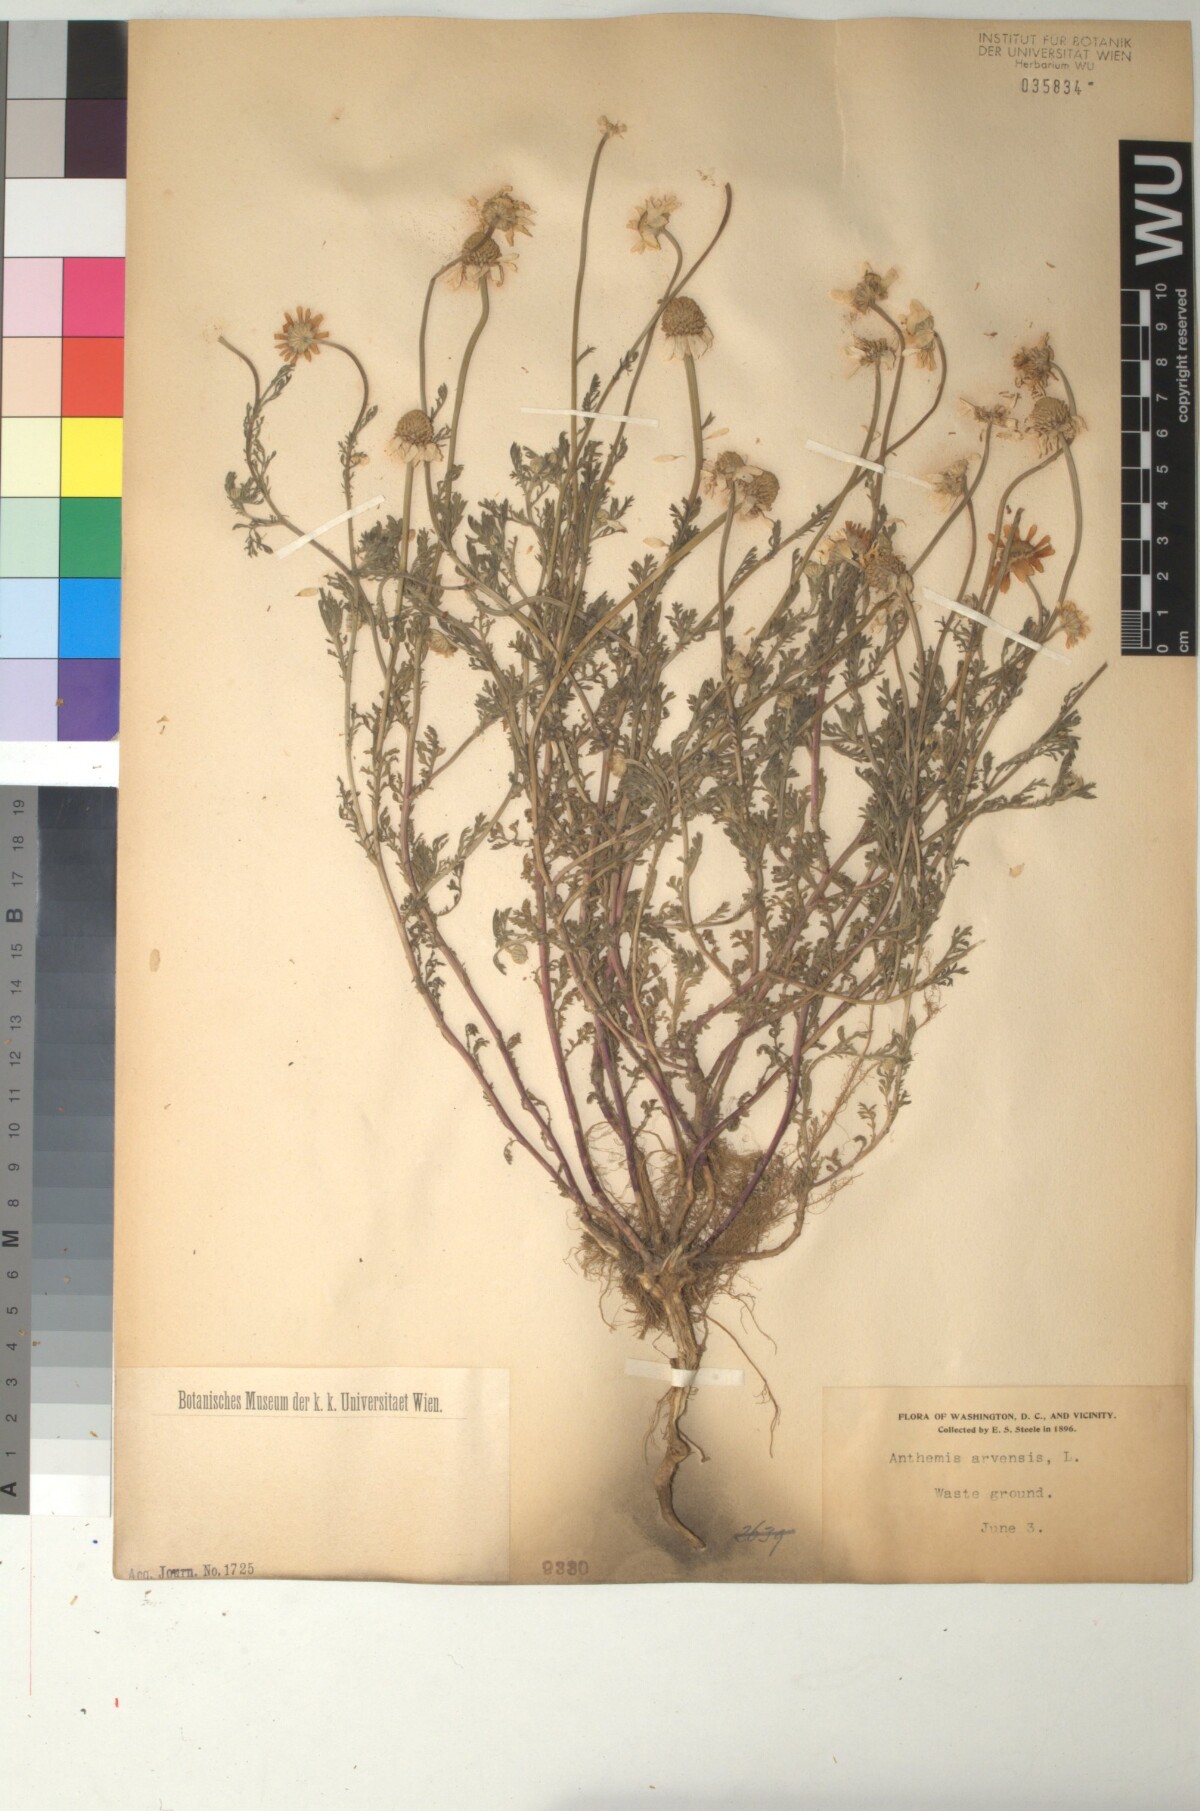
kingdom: Plantae
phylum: Tracheophyta
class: Magnoliopsida
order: Asterales
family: Asteraceae
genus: Anthemis
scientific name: Anthemis arvensis
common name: Corn chamomile
